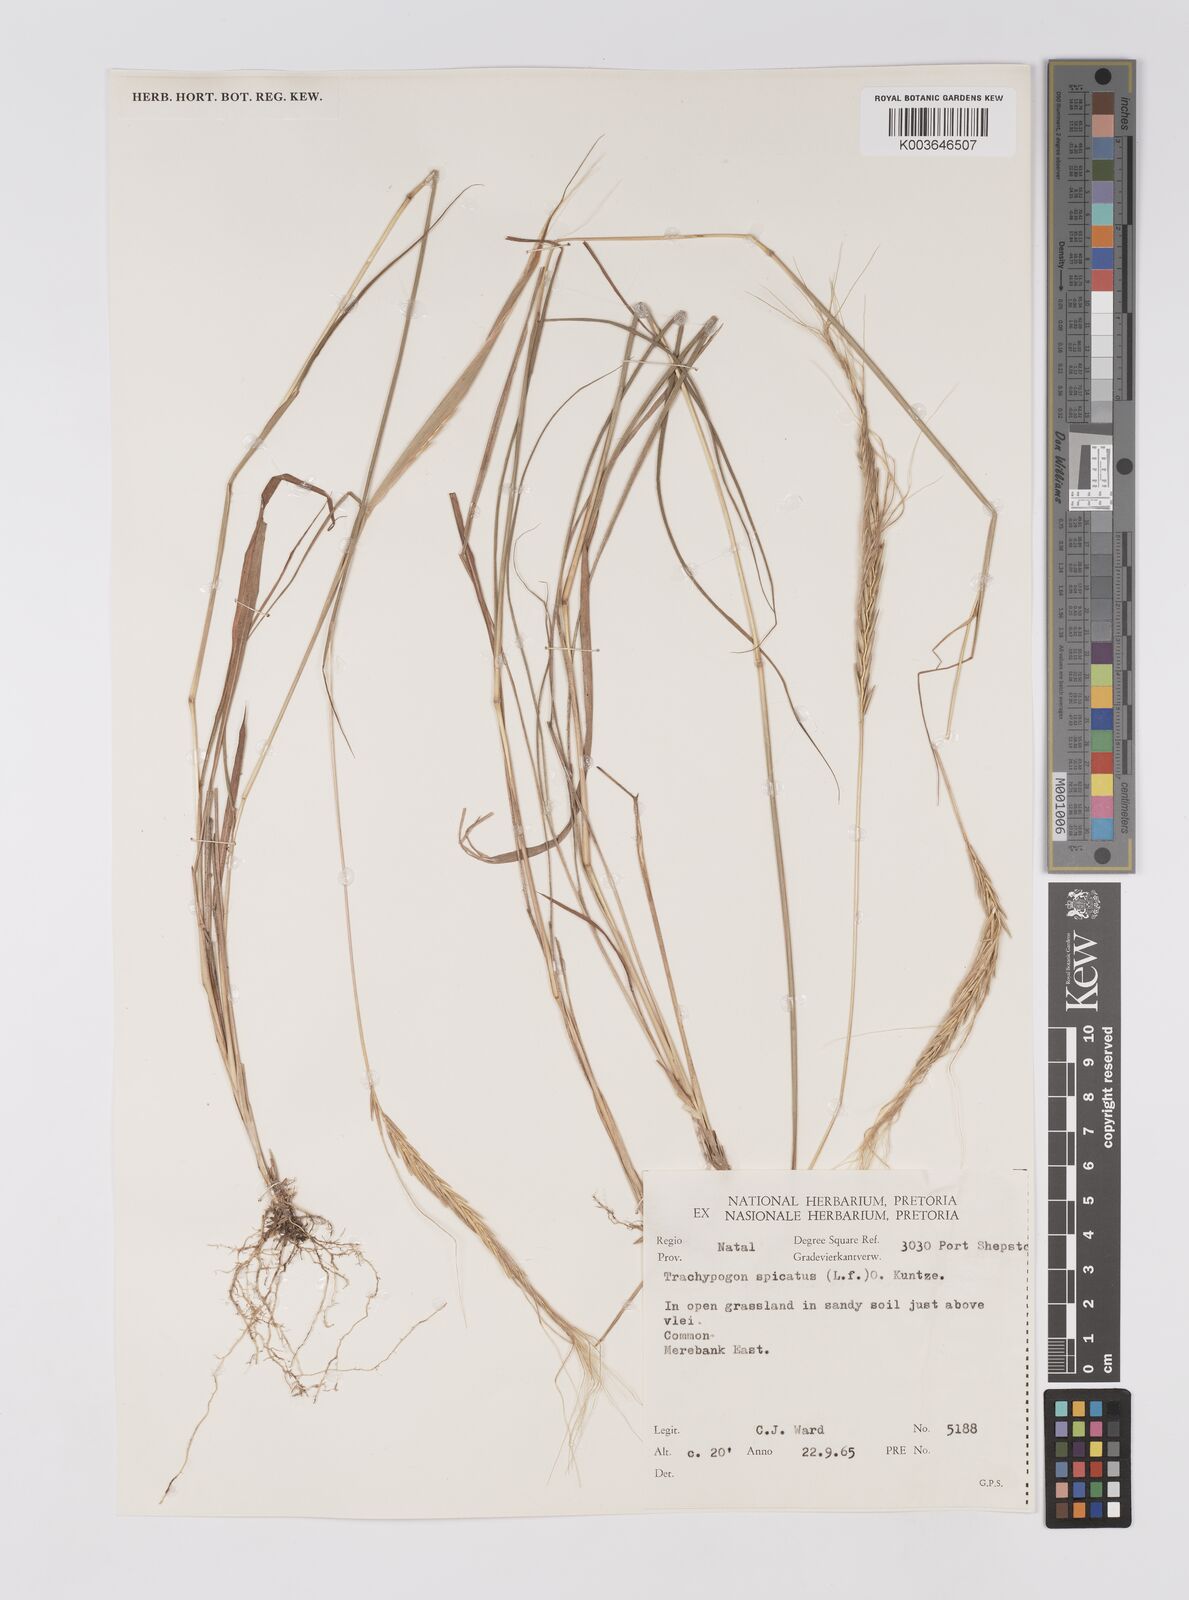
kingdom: Plantae
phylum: Tracheophyta
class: Liliopsida
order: Poales
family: Poaceae
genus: Trachypogon
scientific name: Trachypogon spicatus
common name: Crinkle-awn
